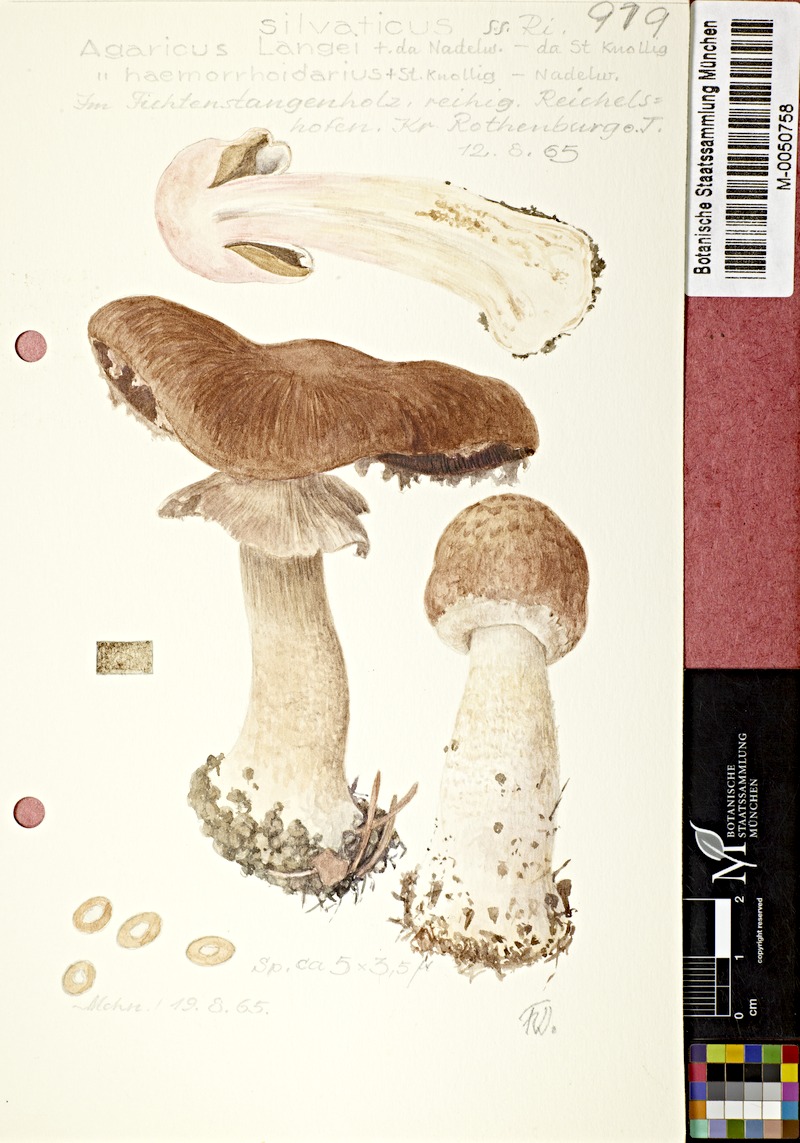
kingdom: Fungi
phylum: Basidiomycota
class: Agaricomycetes
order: Agaricales
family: Agaricaceae
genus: Agaricus
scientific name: Agaricus langei
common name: Scaly wood mushroom
